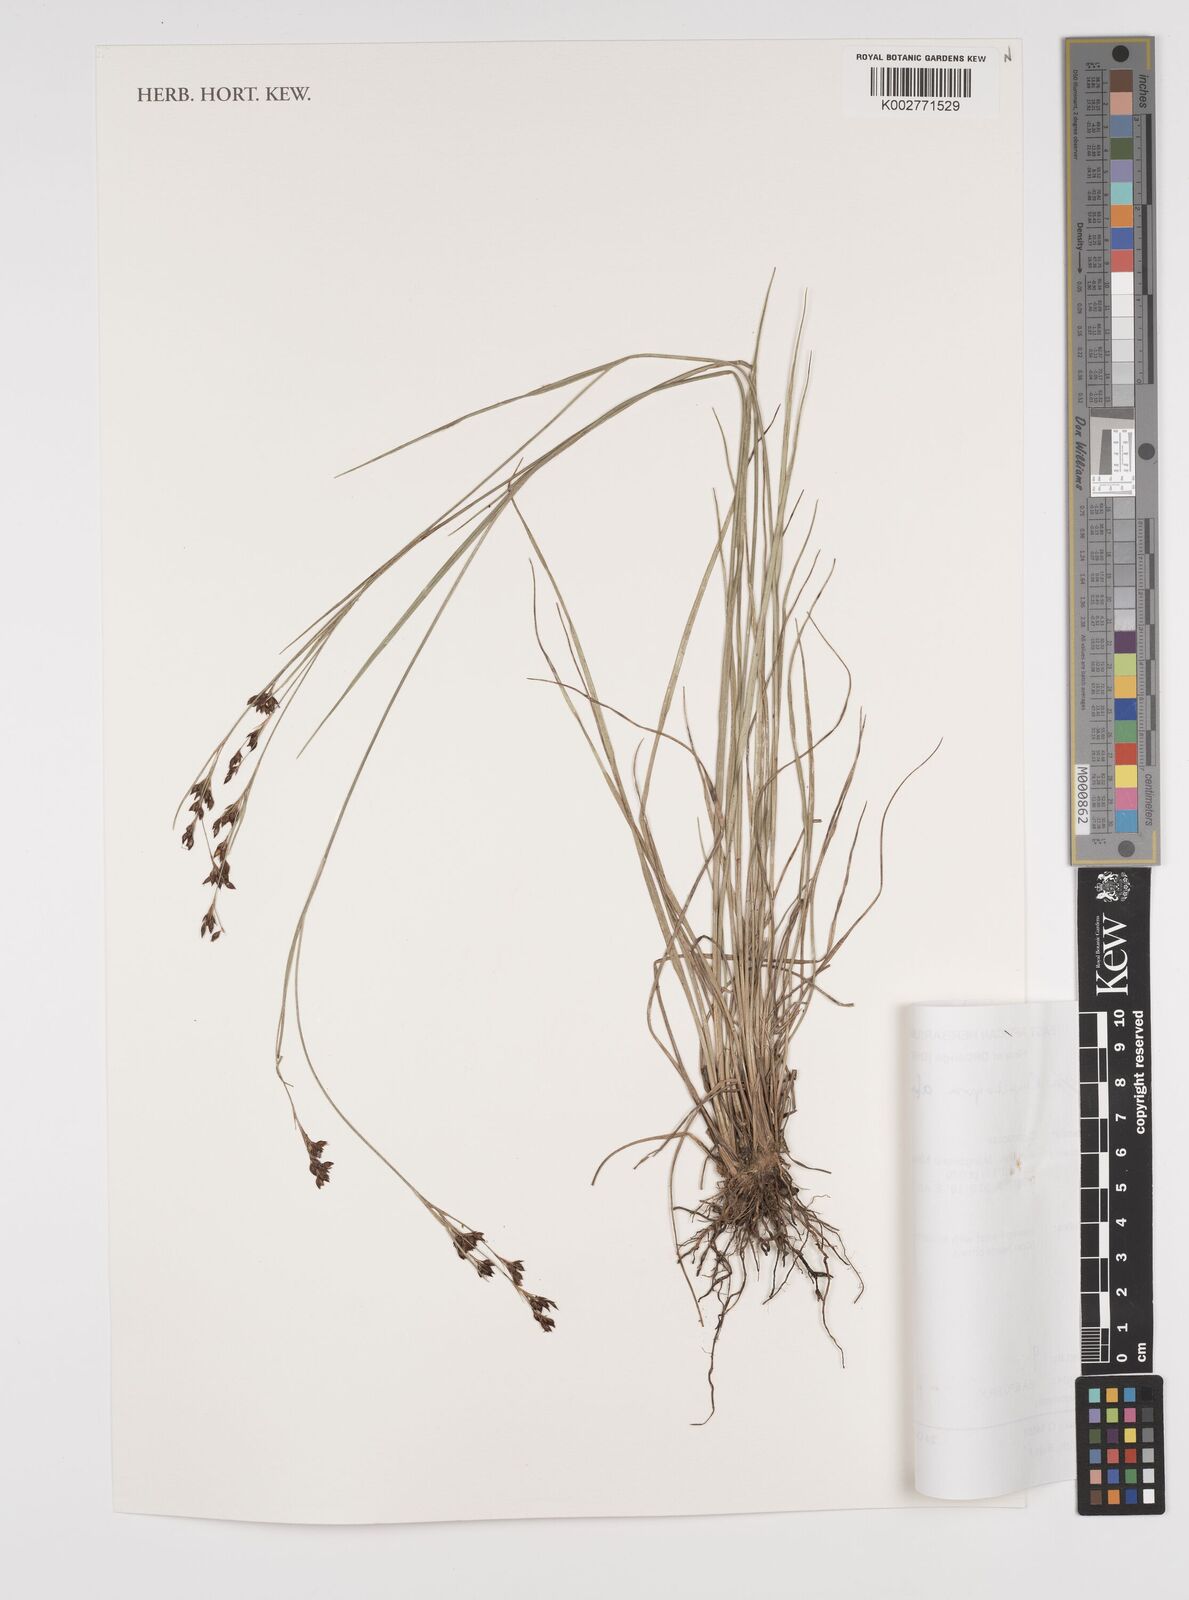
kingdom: Plantae
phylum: Tracheophyta
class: Liliopsida
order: Poales
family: Cyperaceae
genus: Rhynchospora
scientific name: Rhynchospora angolensis
